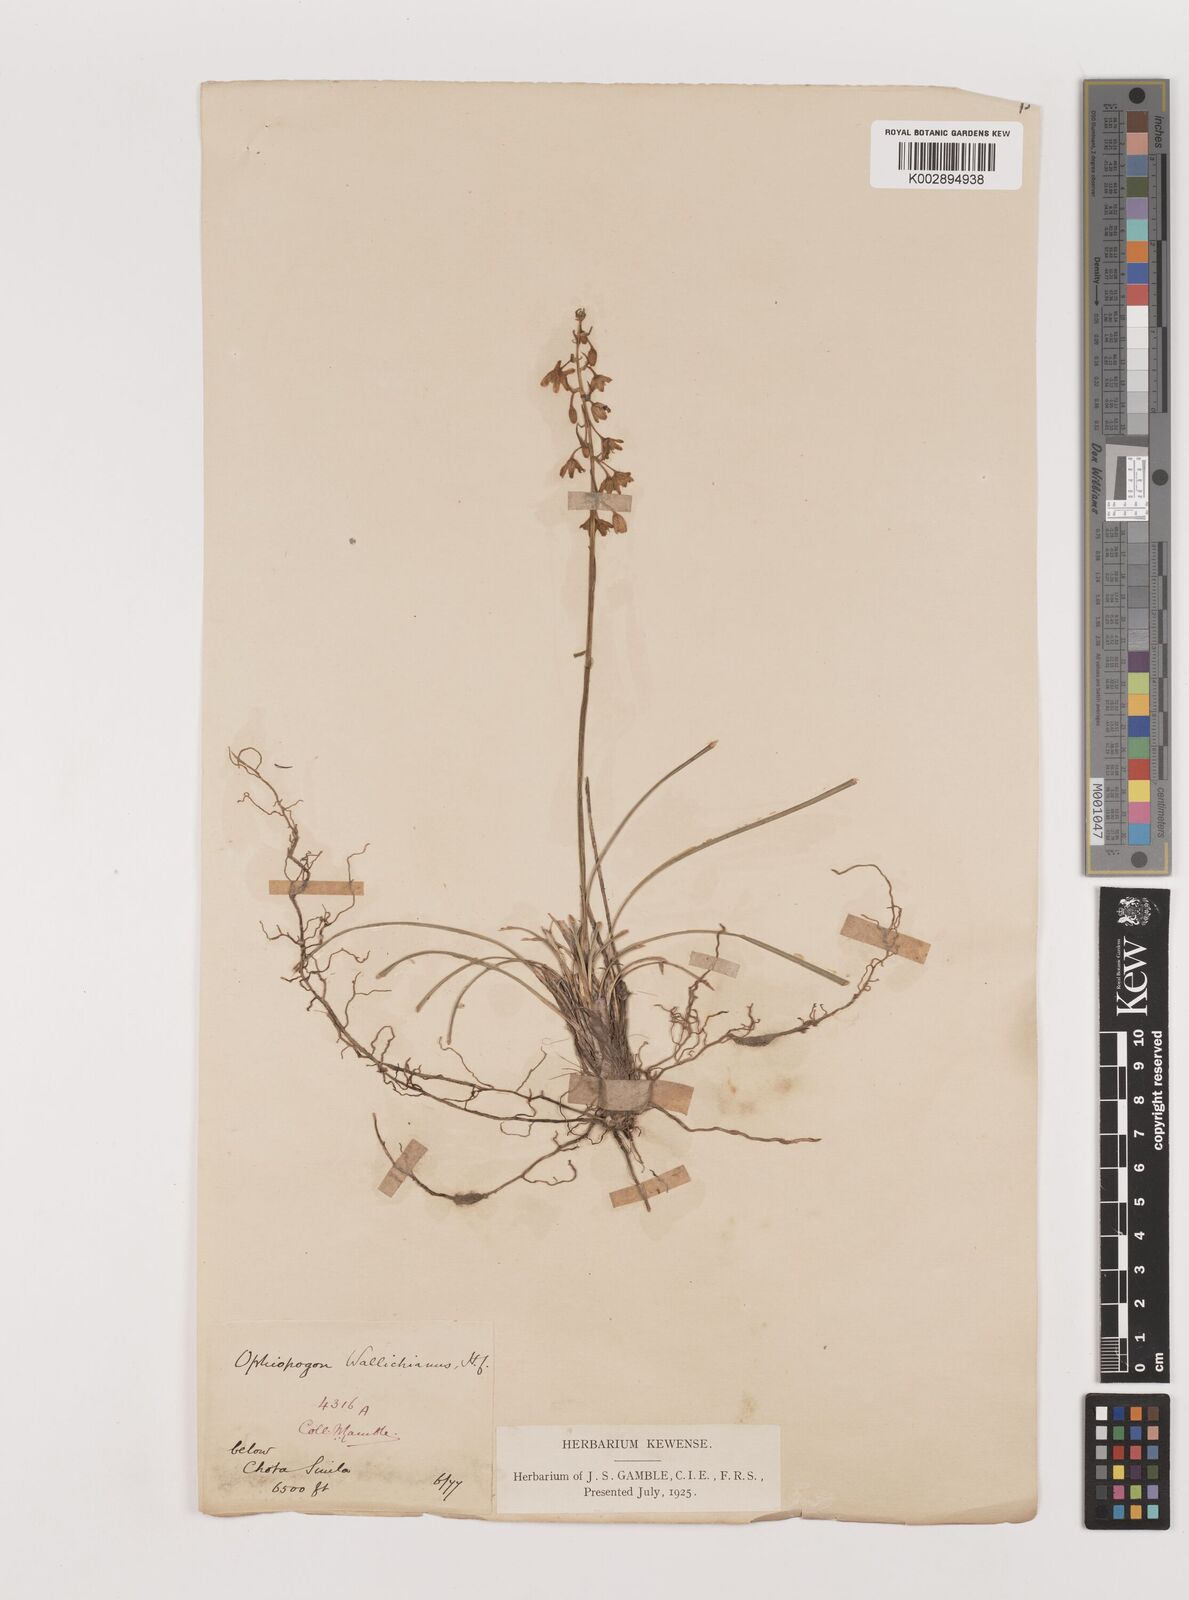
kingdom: Plantae
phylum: Tracheophyta
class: Liliopsida
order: Asparagales
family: Asparagaceae
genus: Ophiopogon
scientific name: Ophiopogon intermedius
